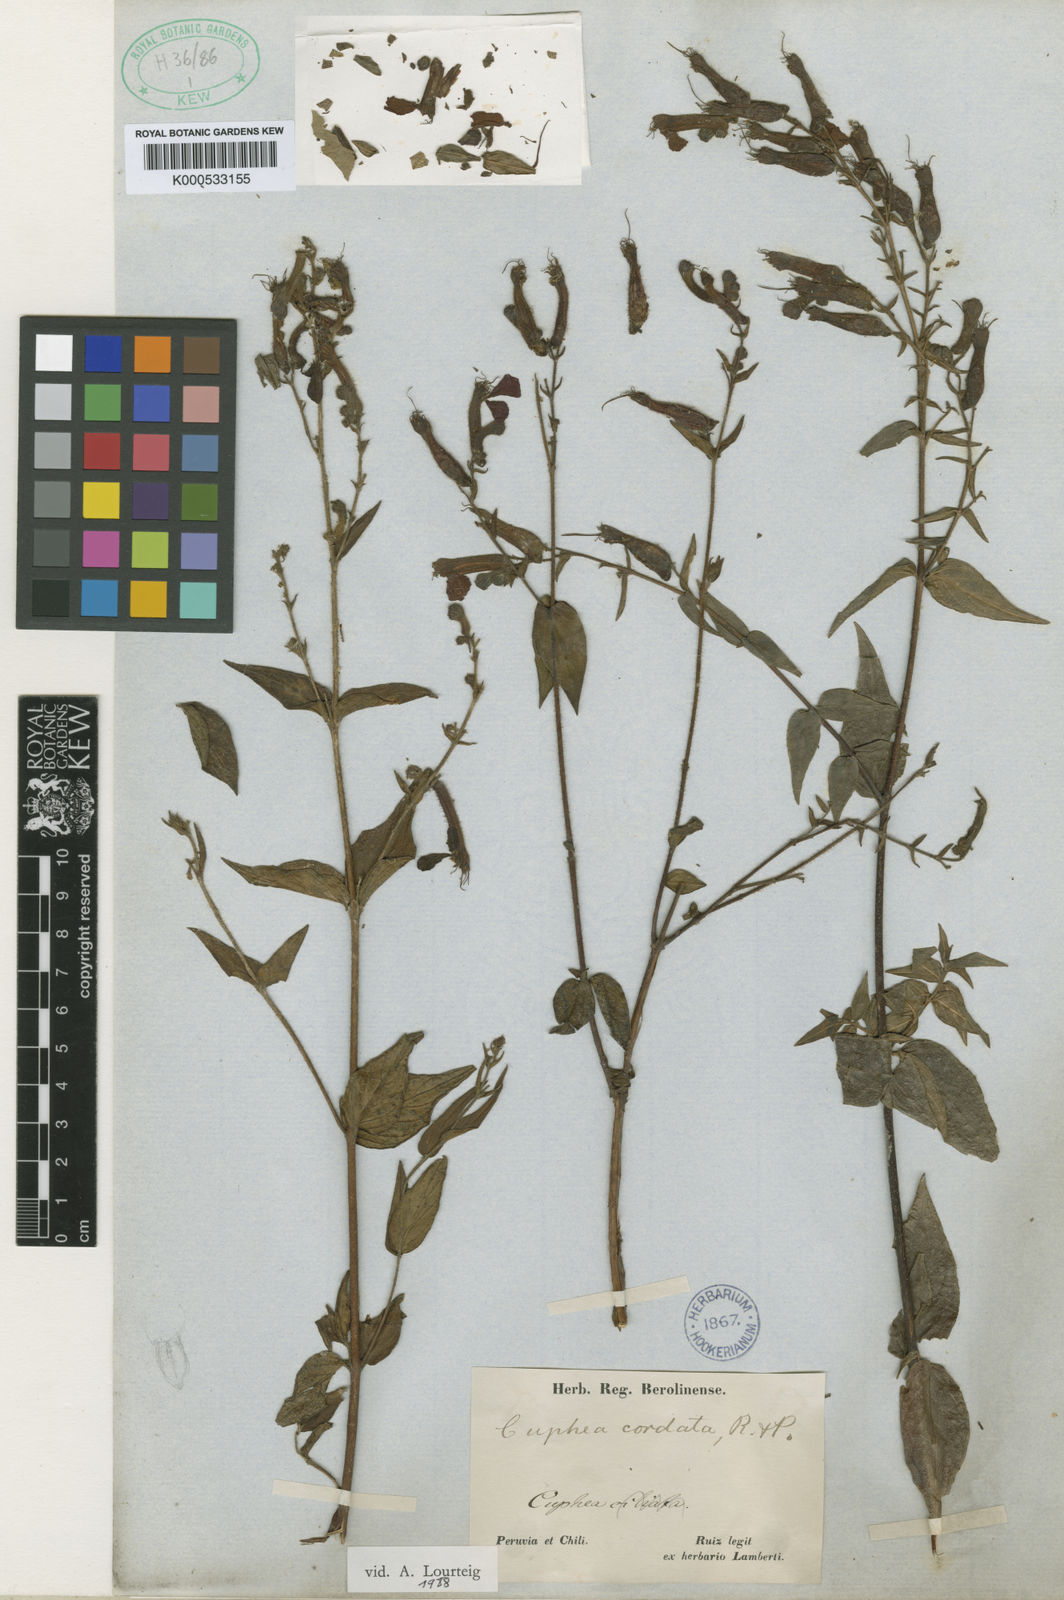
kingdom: Plantae
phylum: Tracheophyta
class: Magnoliopsida
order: Myrtales
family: Lythraceae
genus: Cuphea
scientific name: Cuphea cordata
